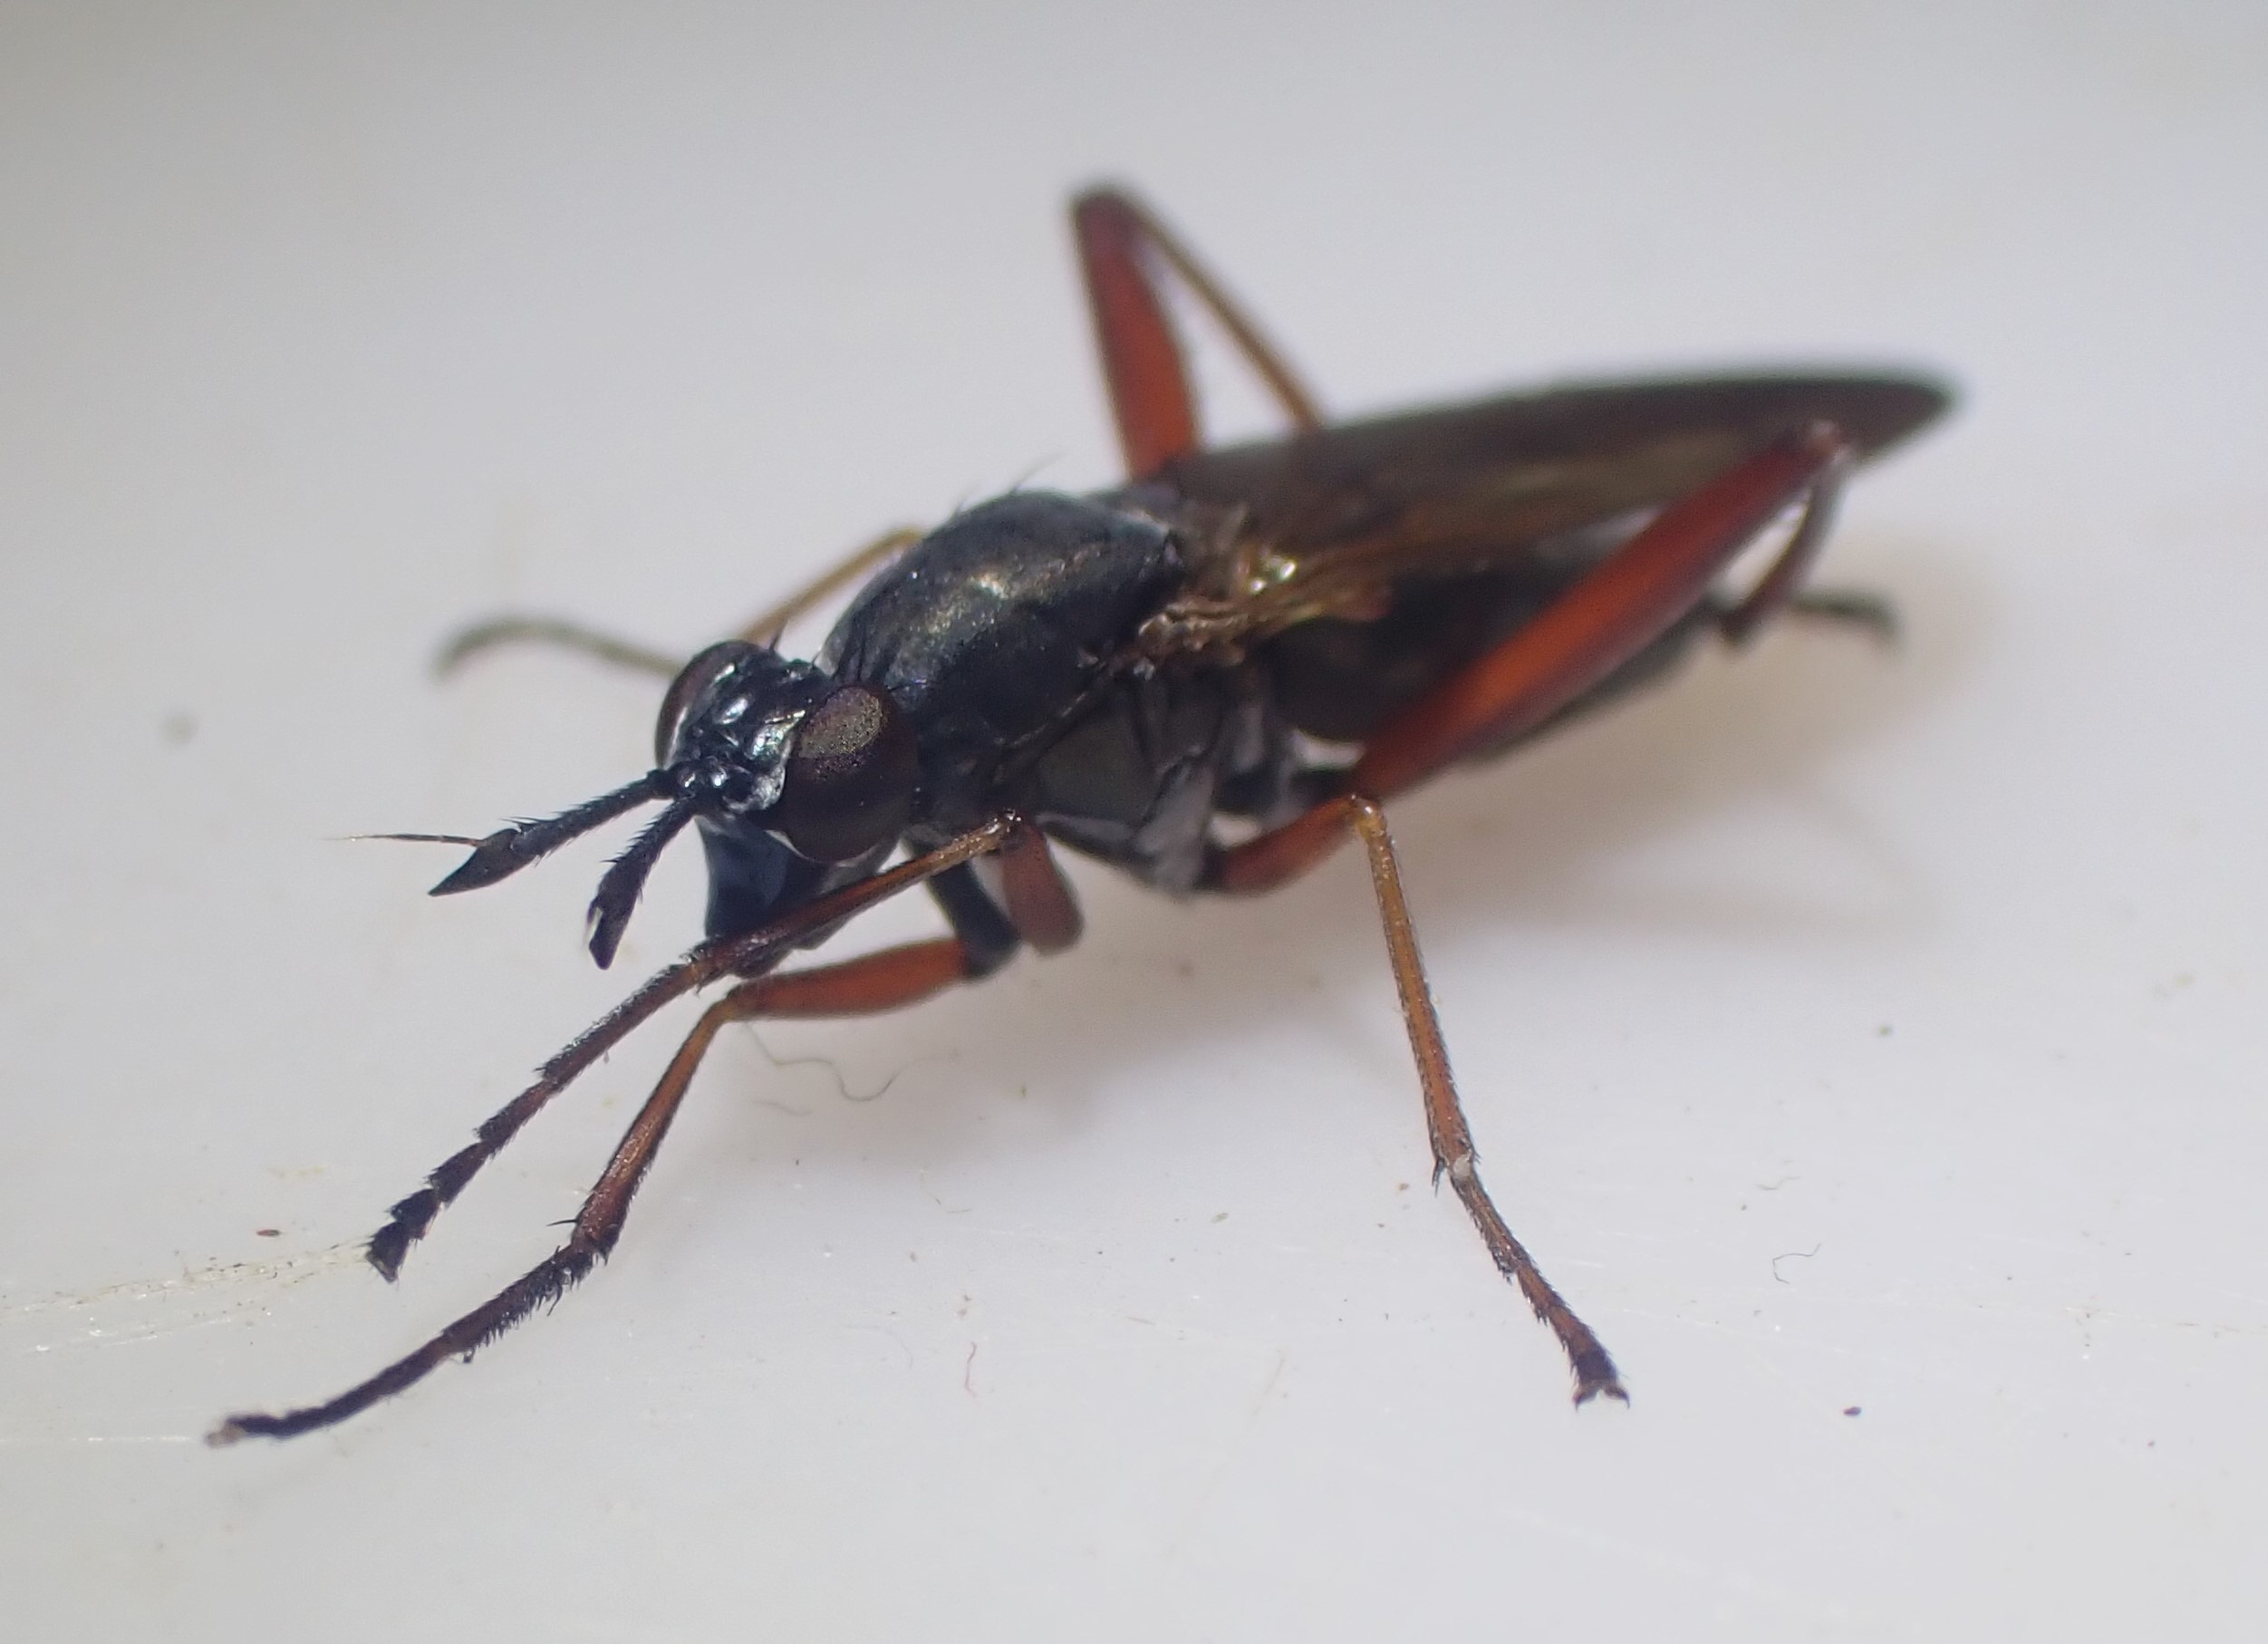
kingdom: Animalia
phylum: Arthropoda
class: Insecta
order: Diptera
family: Sciomyzidae
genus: Sepedon
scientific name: Sepedon sphegea
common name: Rødbenet kærflue
